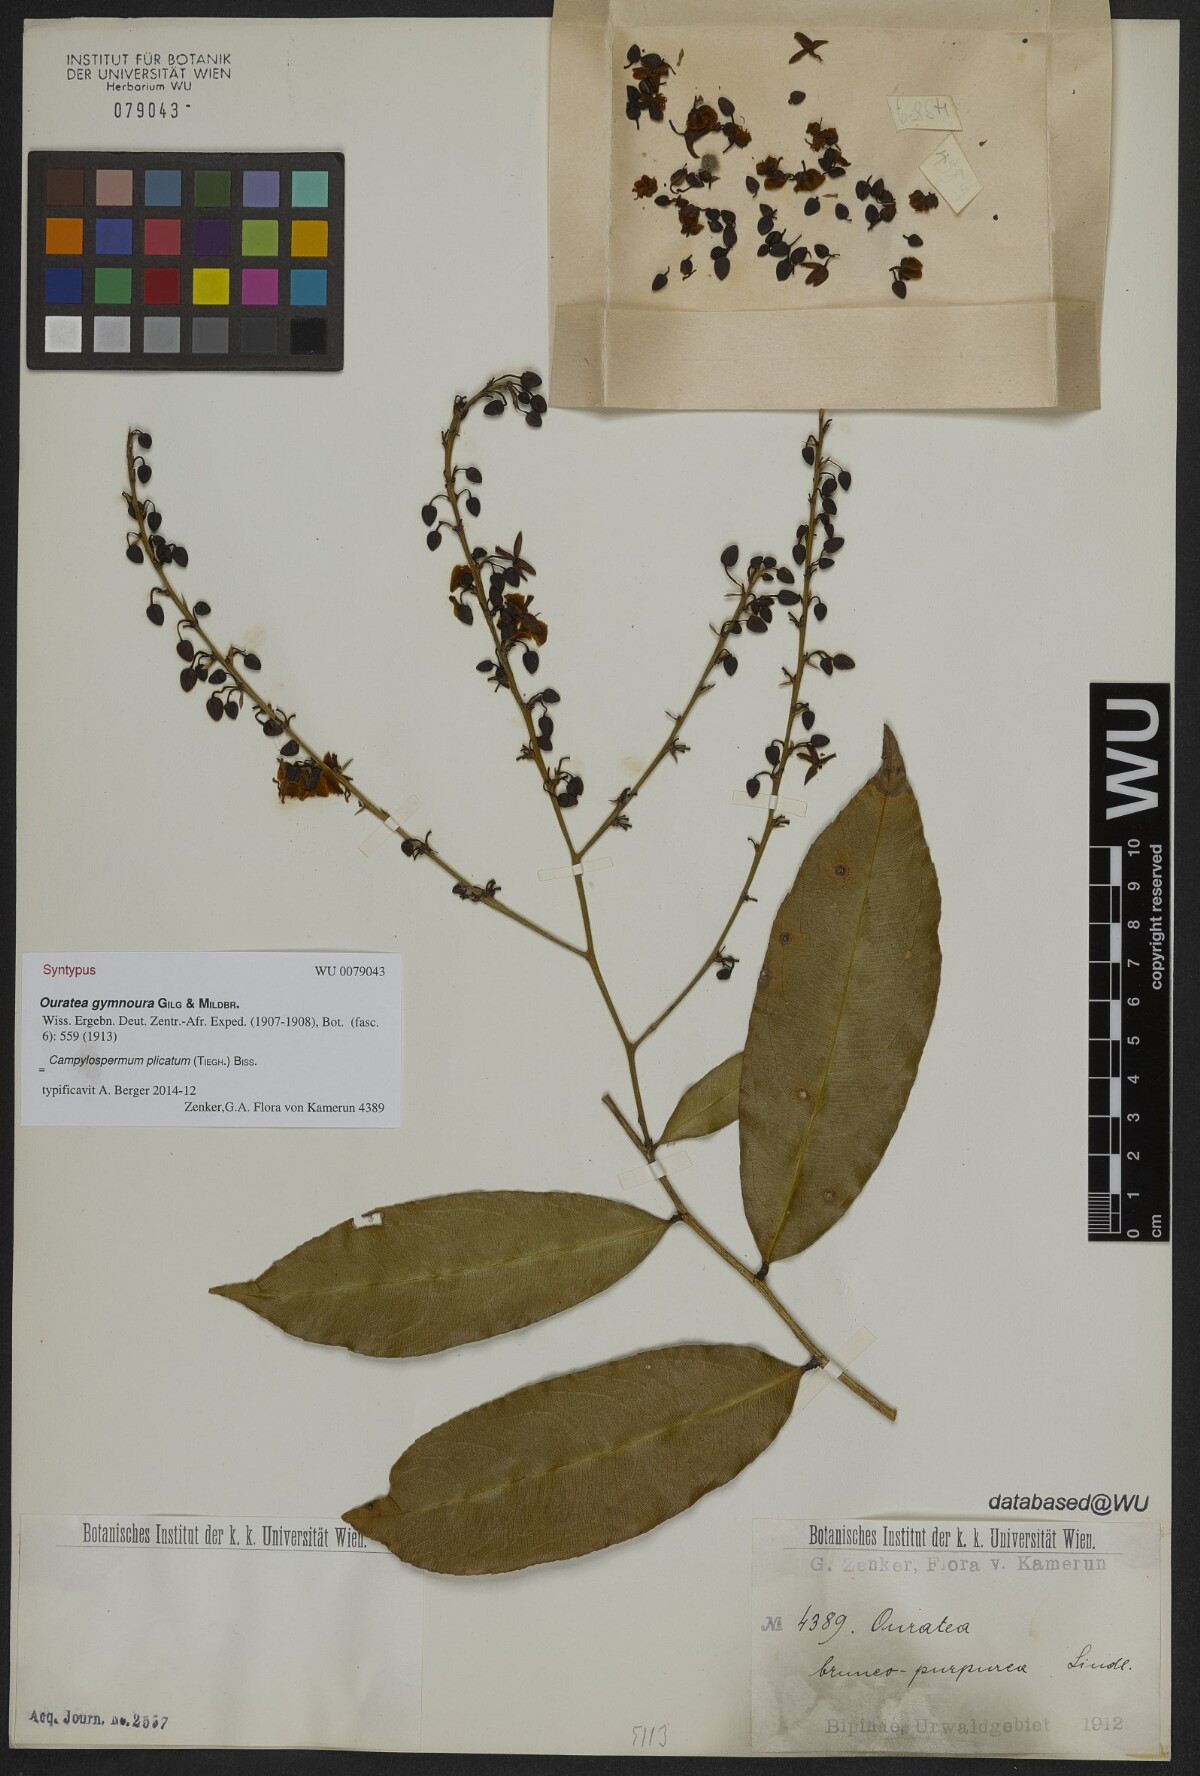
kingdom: Plantae
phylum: Tracheophyta
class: Magnoliopsida
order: Malpighiales
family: Ochnaceae
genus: Campylospermum
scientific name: Campylospermum strictum
